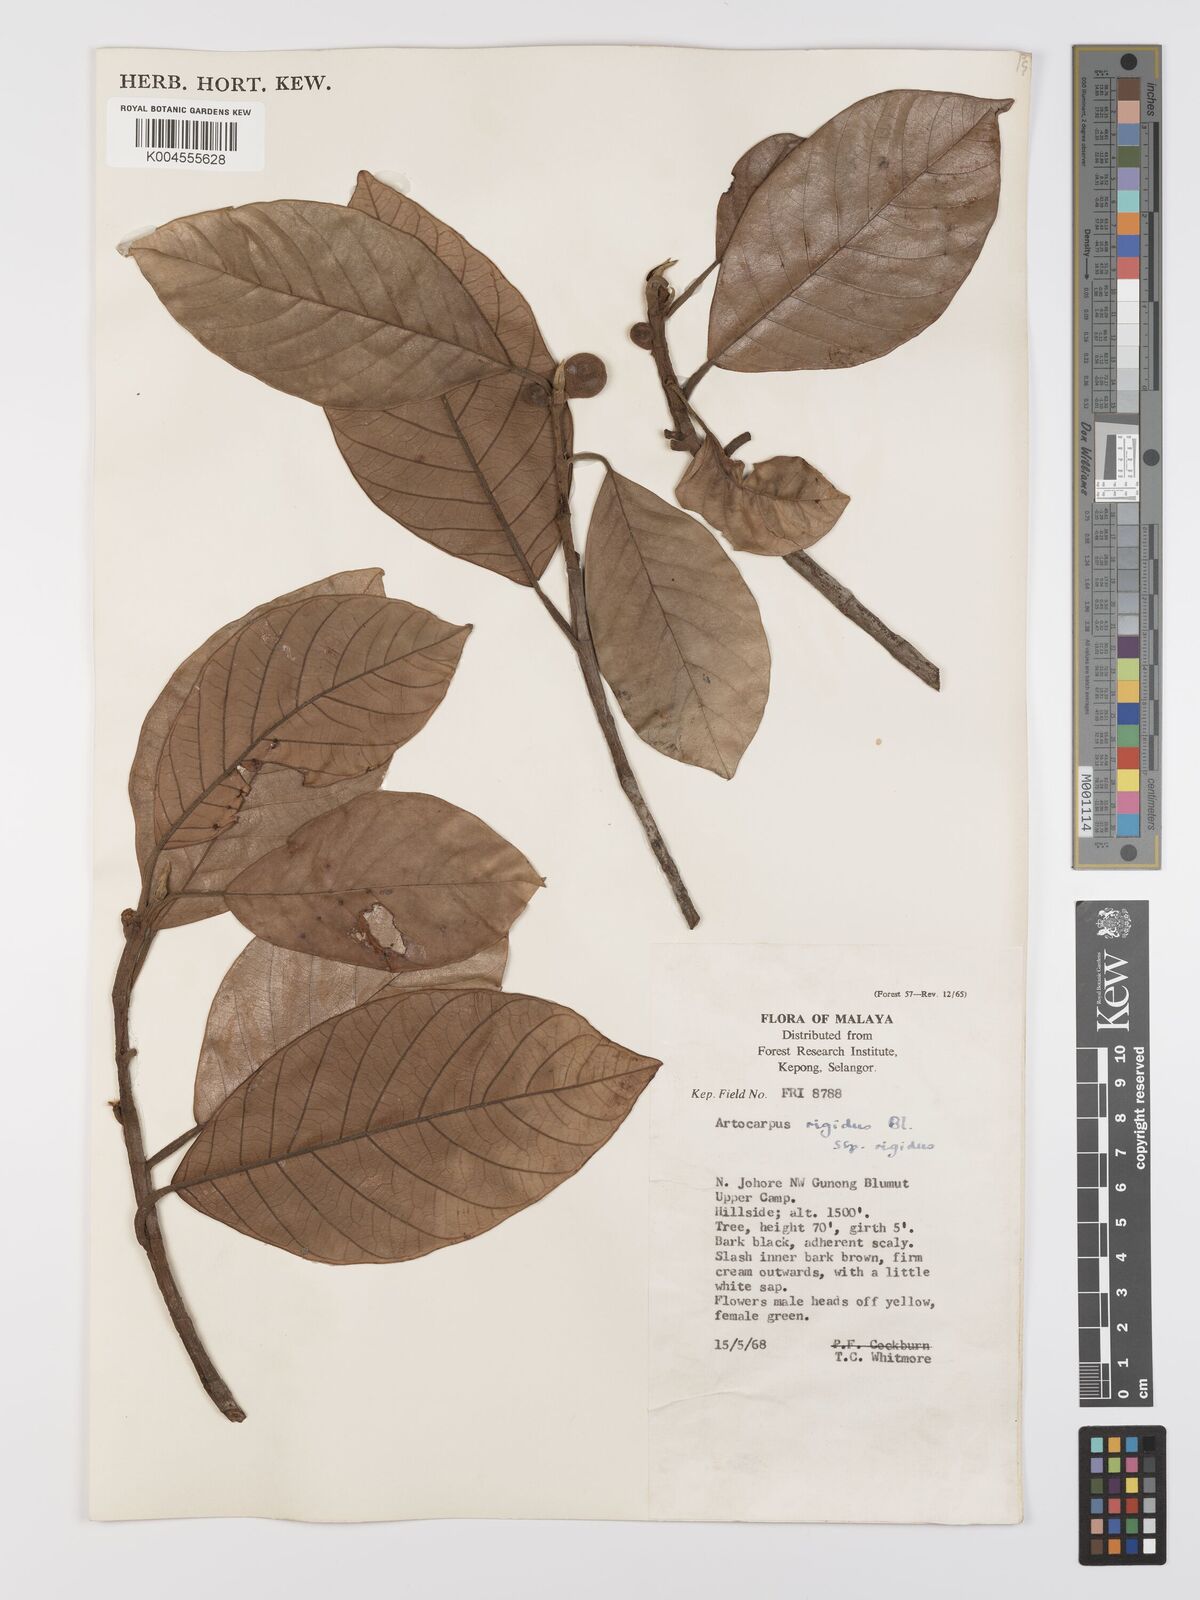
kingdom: Plantae
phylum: Tracheophyta
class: Magnoliopsida
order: Rosales
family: Moraceae
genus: Artocarpus
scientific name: Artocarpus
